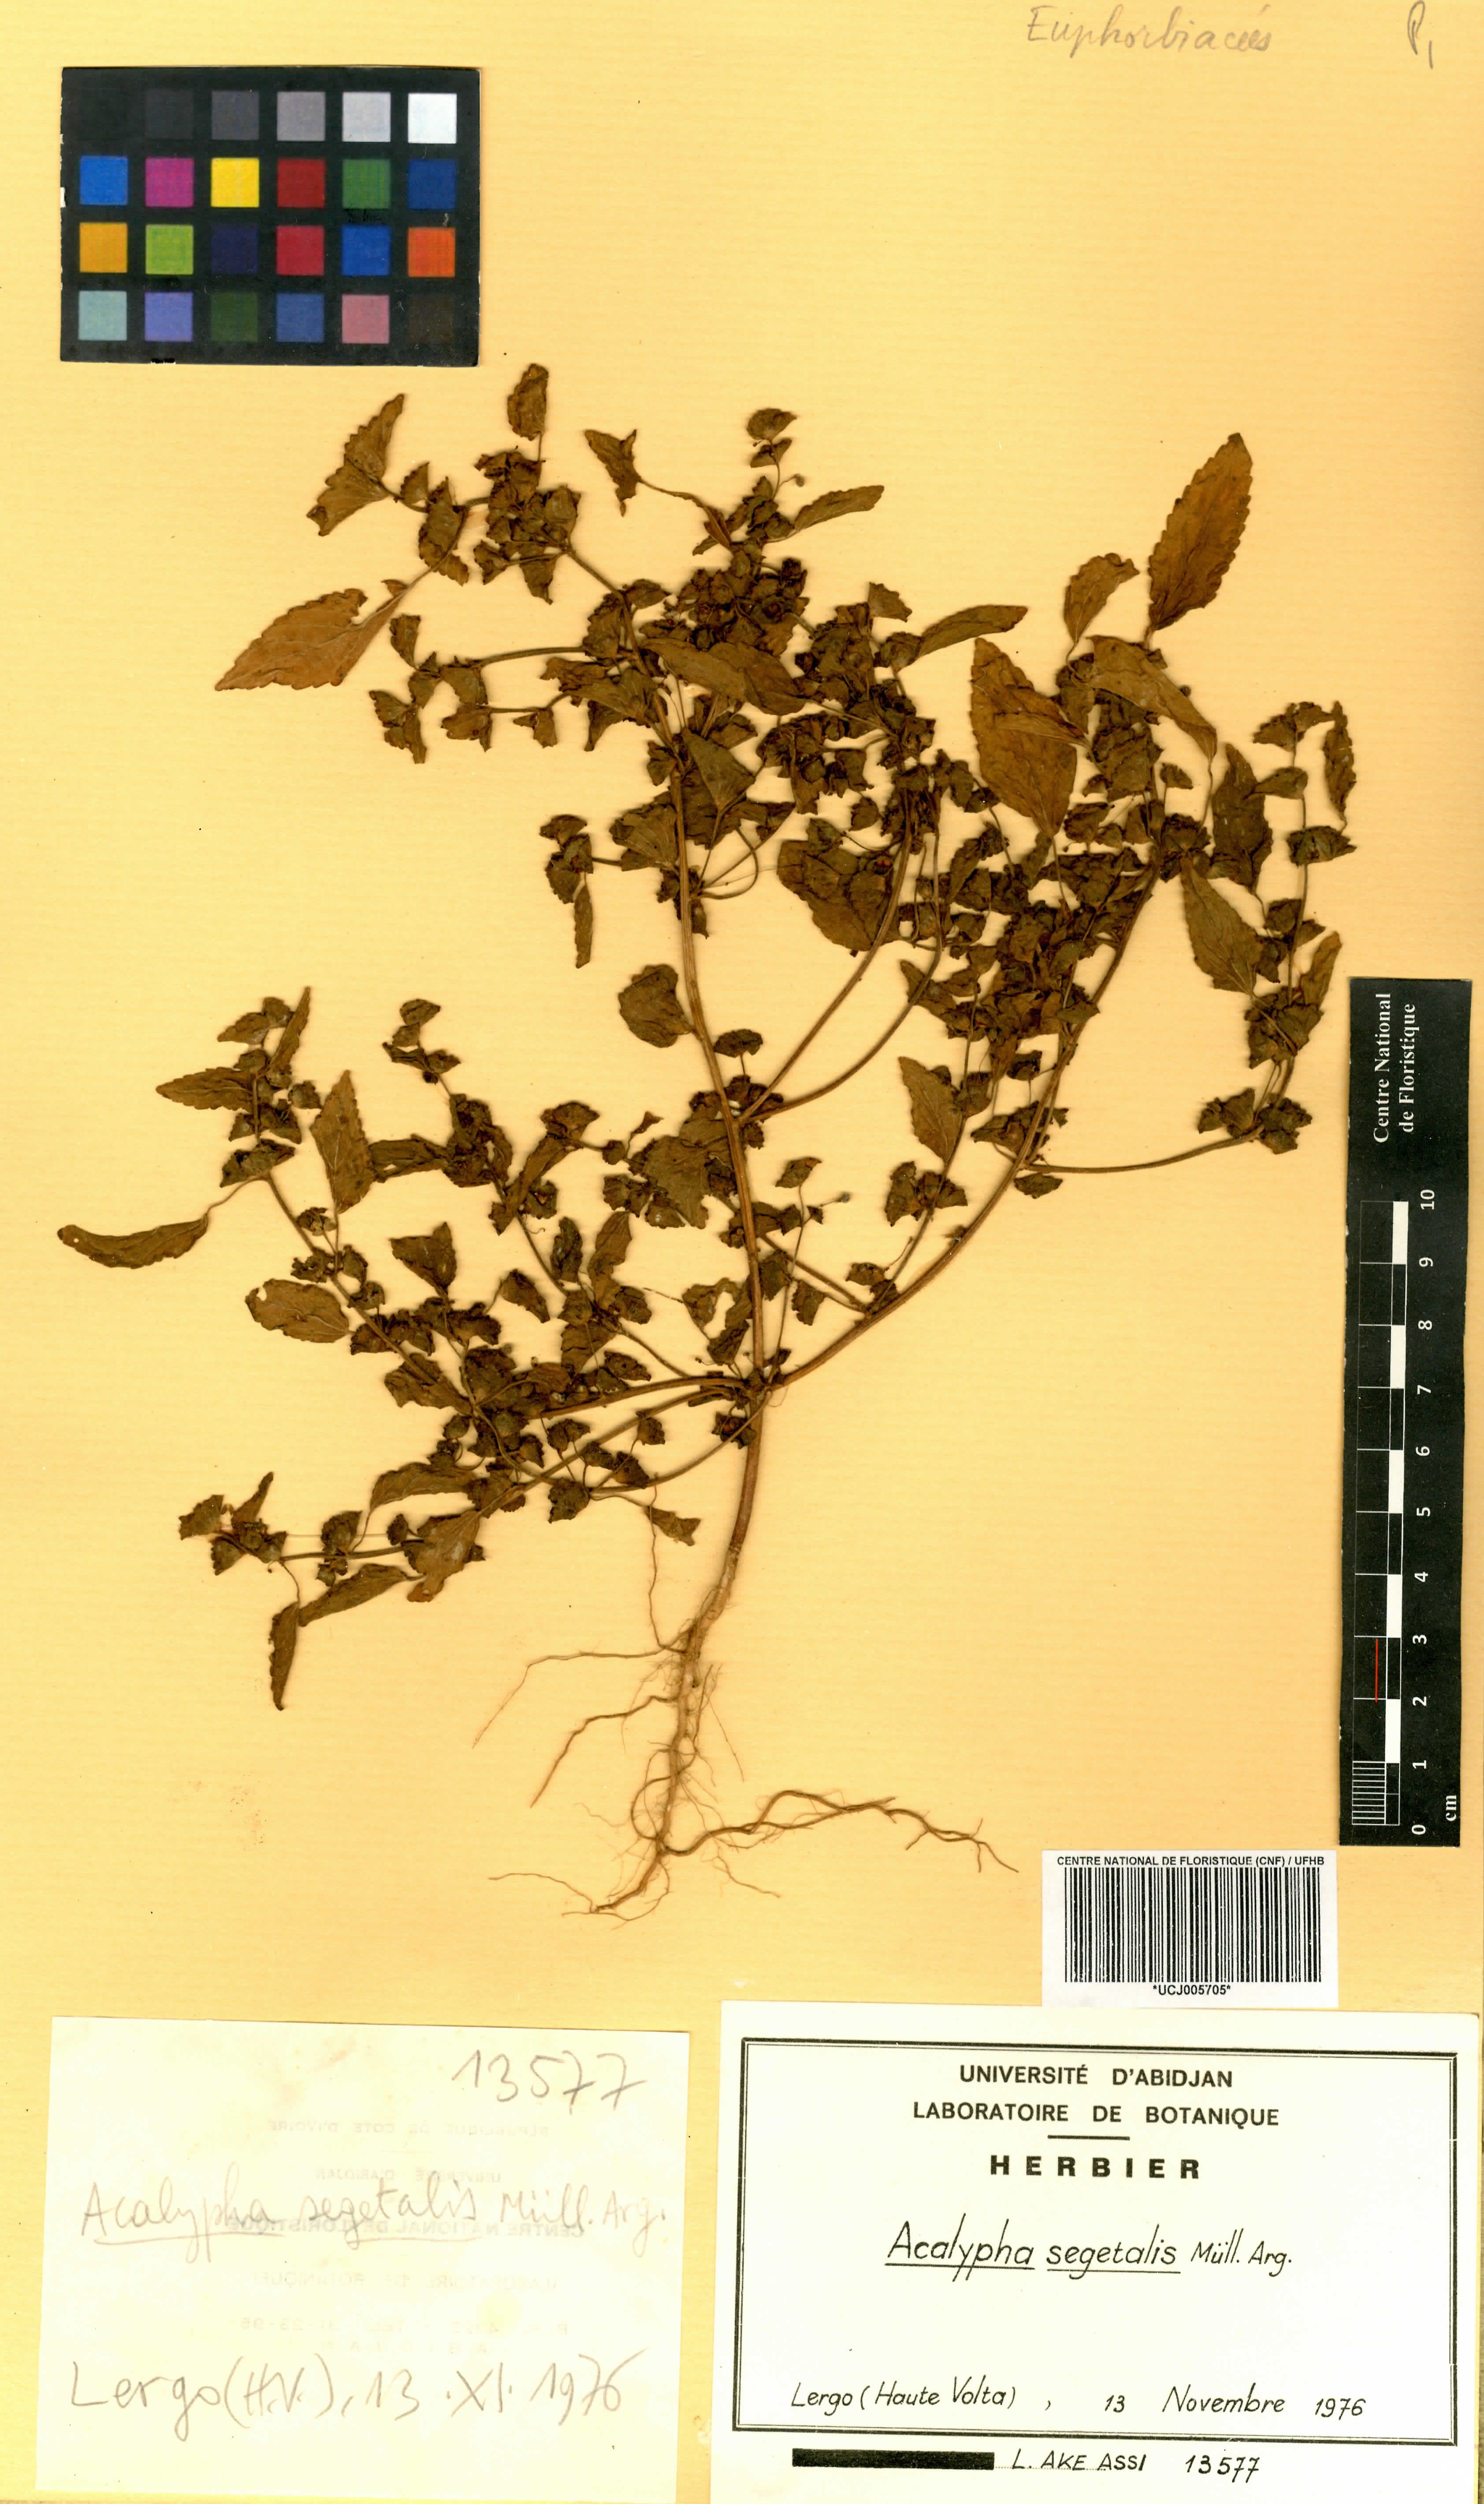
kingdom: Plantae
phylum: Tracheophyta
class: Magnoliopsida
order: Malpighiales
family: Euphorbiaceae
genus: Acalypha
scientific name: Acalypha segetalis
